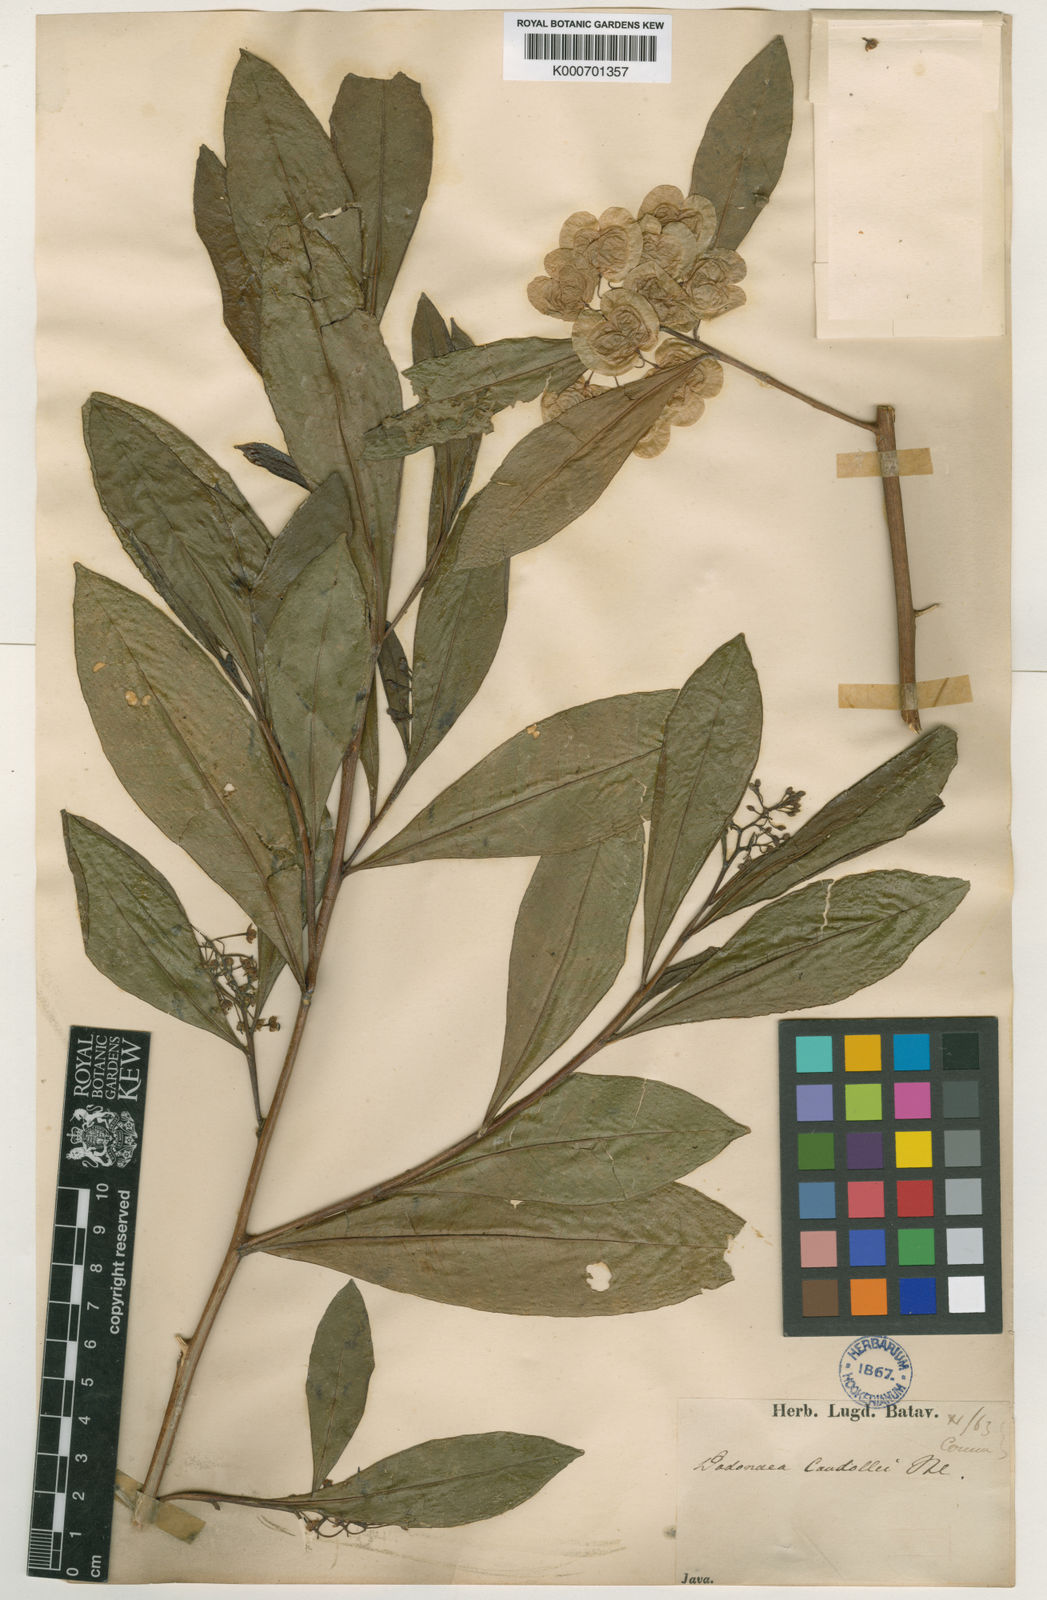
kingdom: Plantae
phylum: Tracheophyta
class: Magnoliopsida
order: Sapindales
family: Sapindaceae
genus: Dodonaea
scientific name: Dodonaea viscosa
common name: Hopbush
